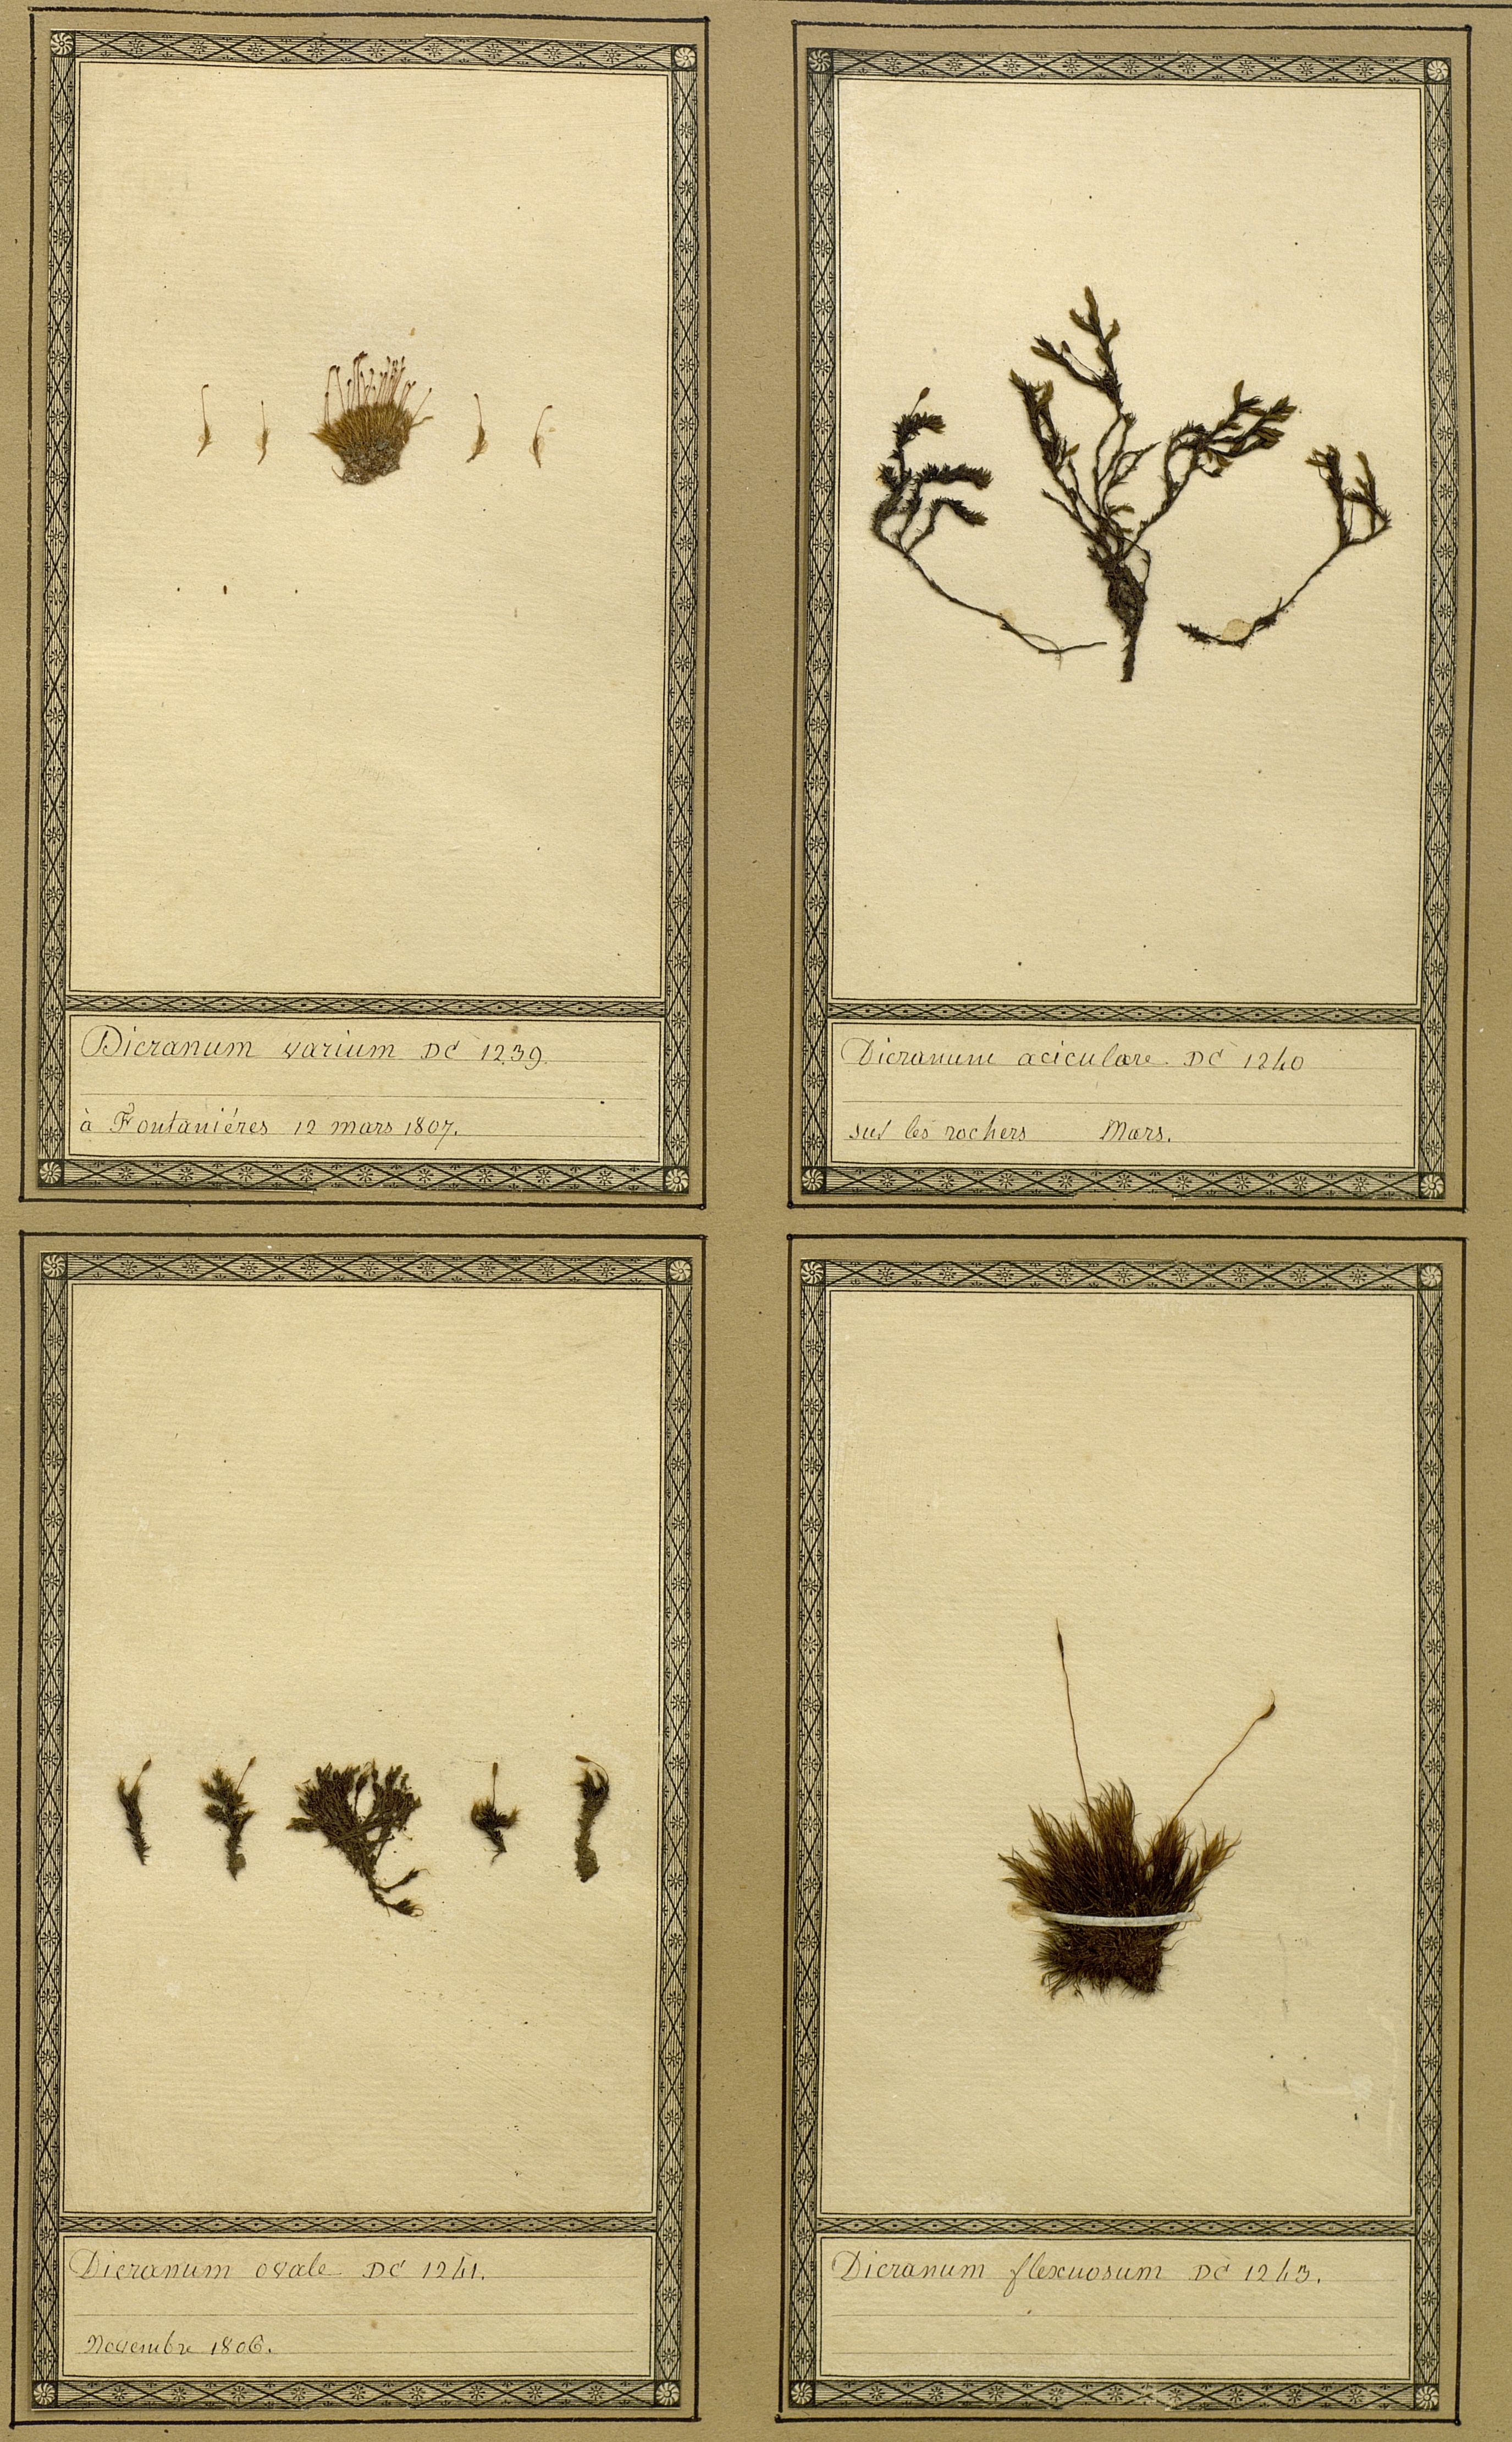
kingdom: Plantae
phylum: Bryophyta
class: Bryopsida
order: Grimmiales
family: Grimmiaceae
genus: Grimmia
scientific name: Grimmia ovalis
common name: Oval grimmia
